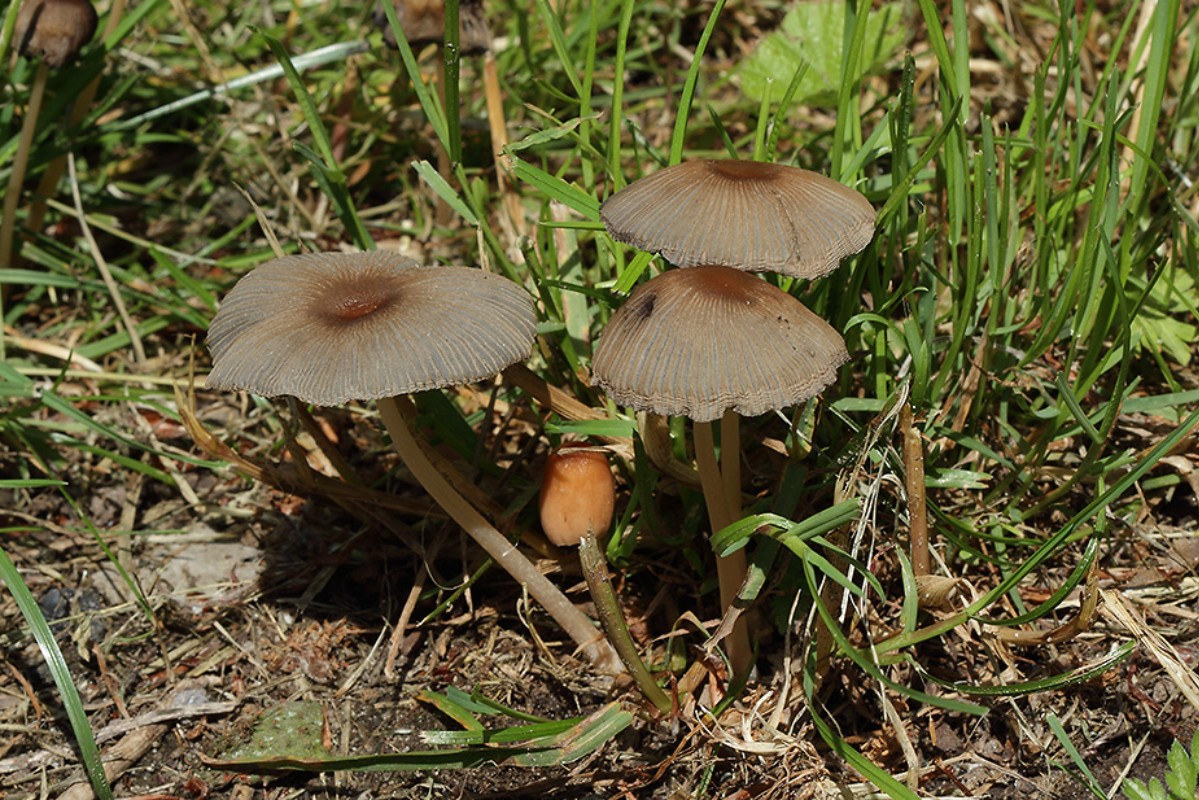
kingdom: Fungi
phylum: Basidiomycota
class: Agaricomycetes
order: Agaricales
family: Psathyrellaceae
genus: Parasola
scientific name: Parasola auricoma
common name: hansens hjulhat
